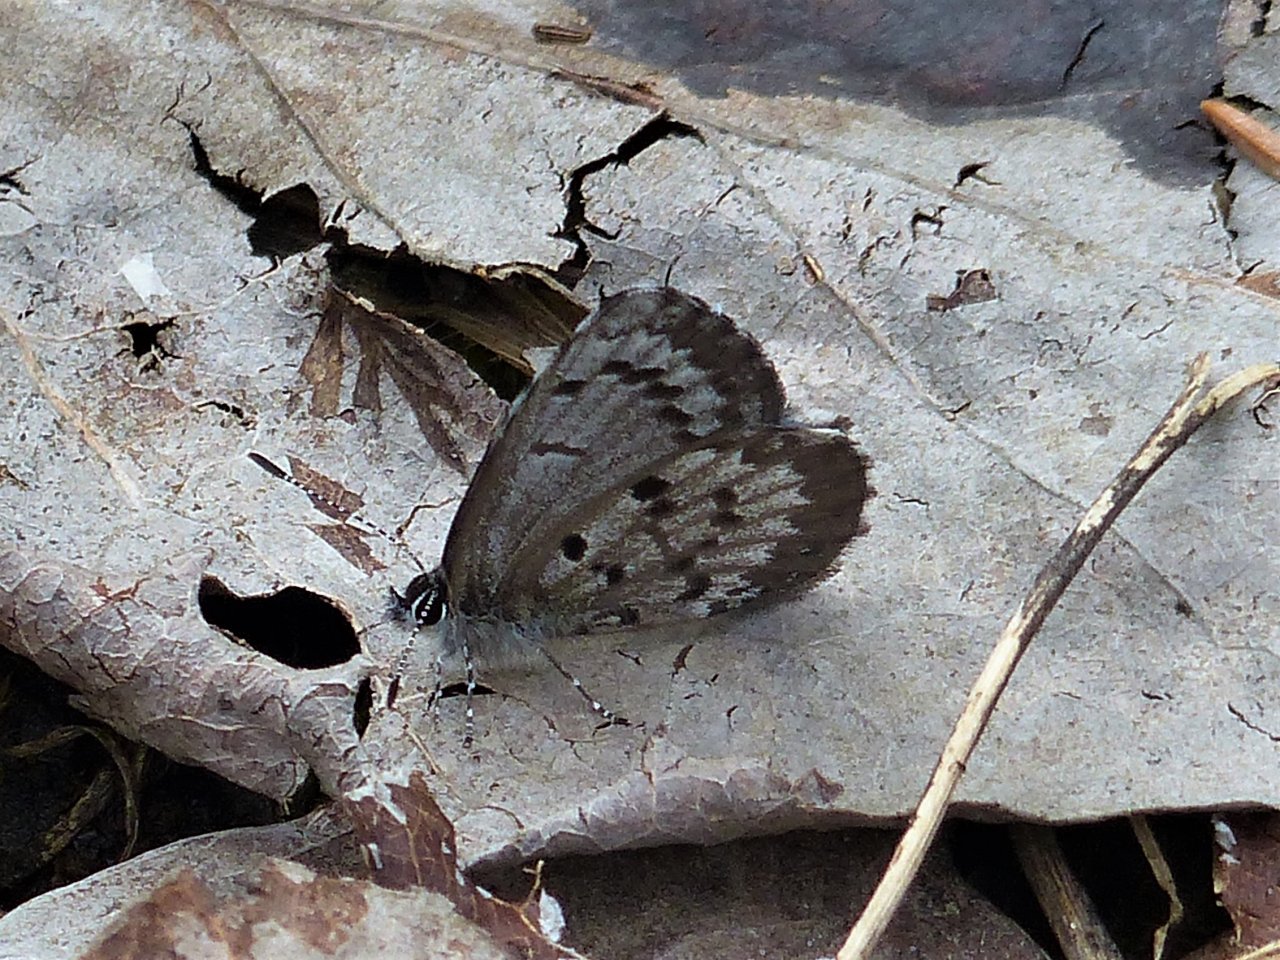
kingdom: Animalia
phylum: Arthropoda
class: Insecta
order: Lepidoptera
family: Lycaenidae
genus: Celastrina
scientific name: Celastrina lucia
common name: Northern Spring Azure
